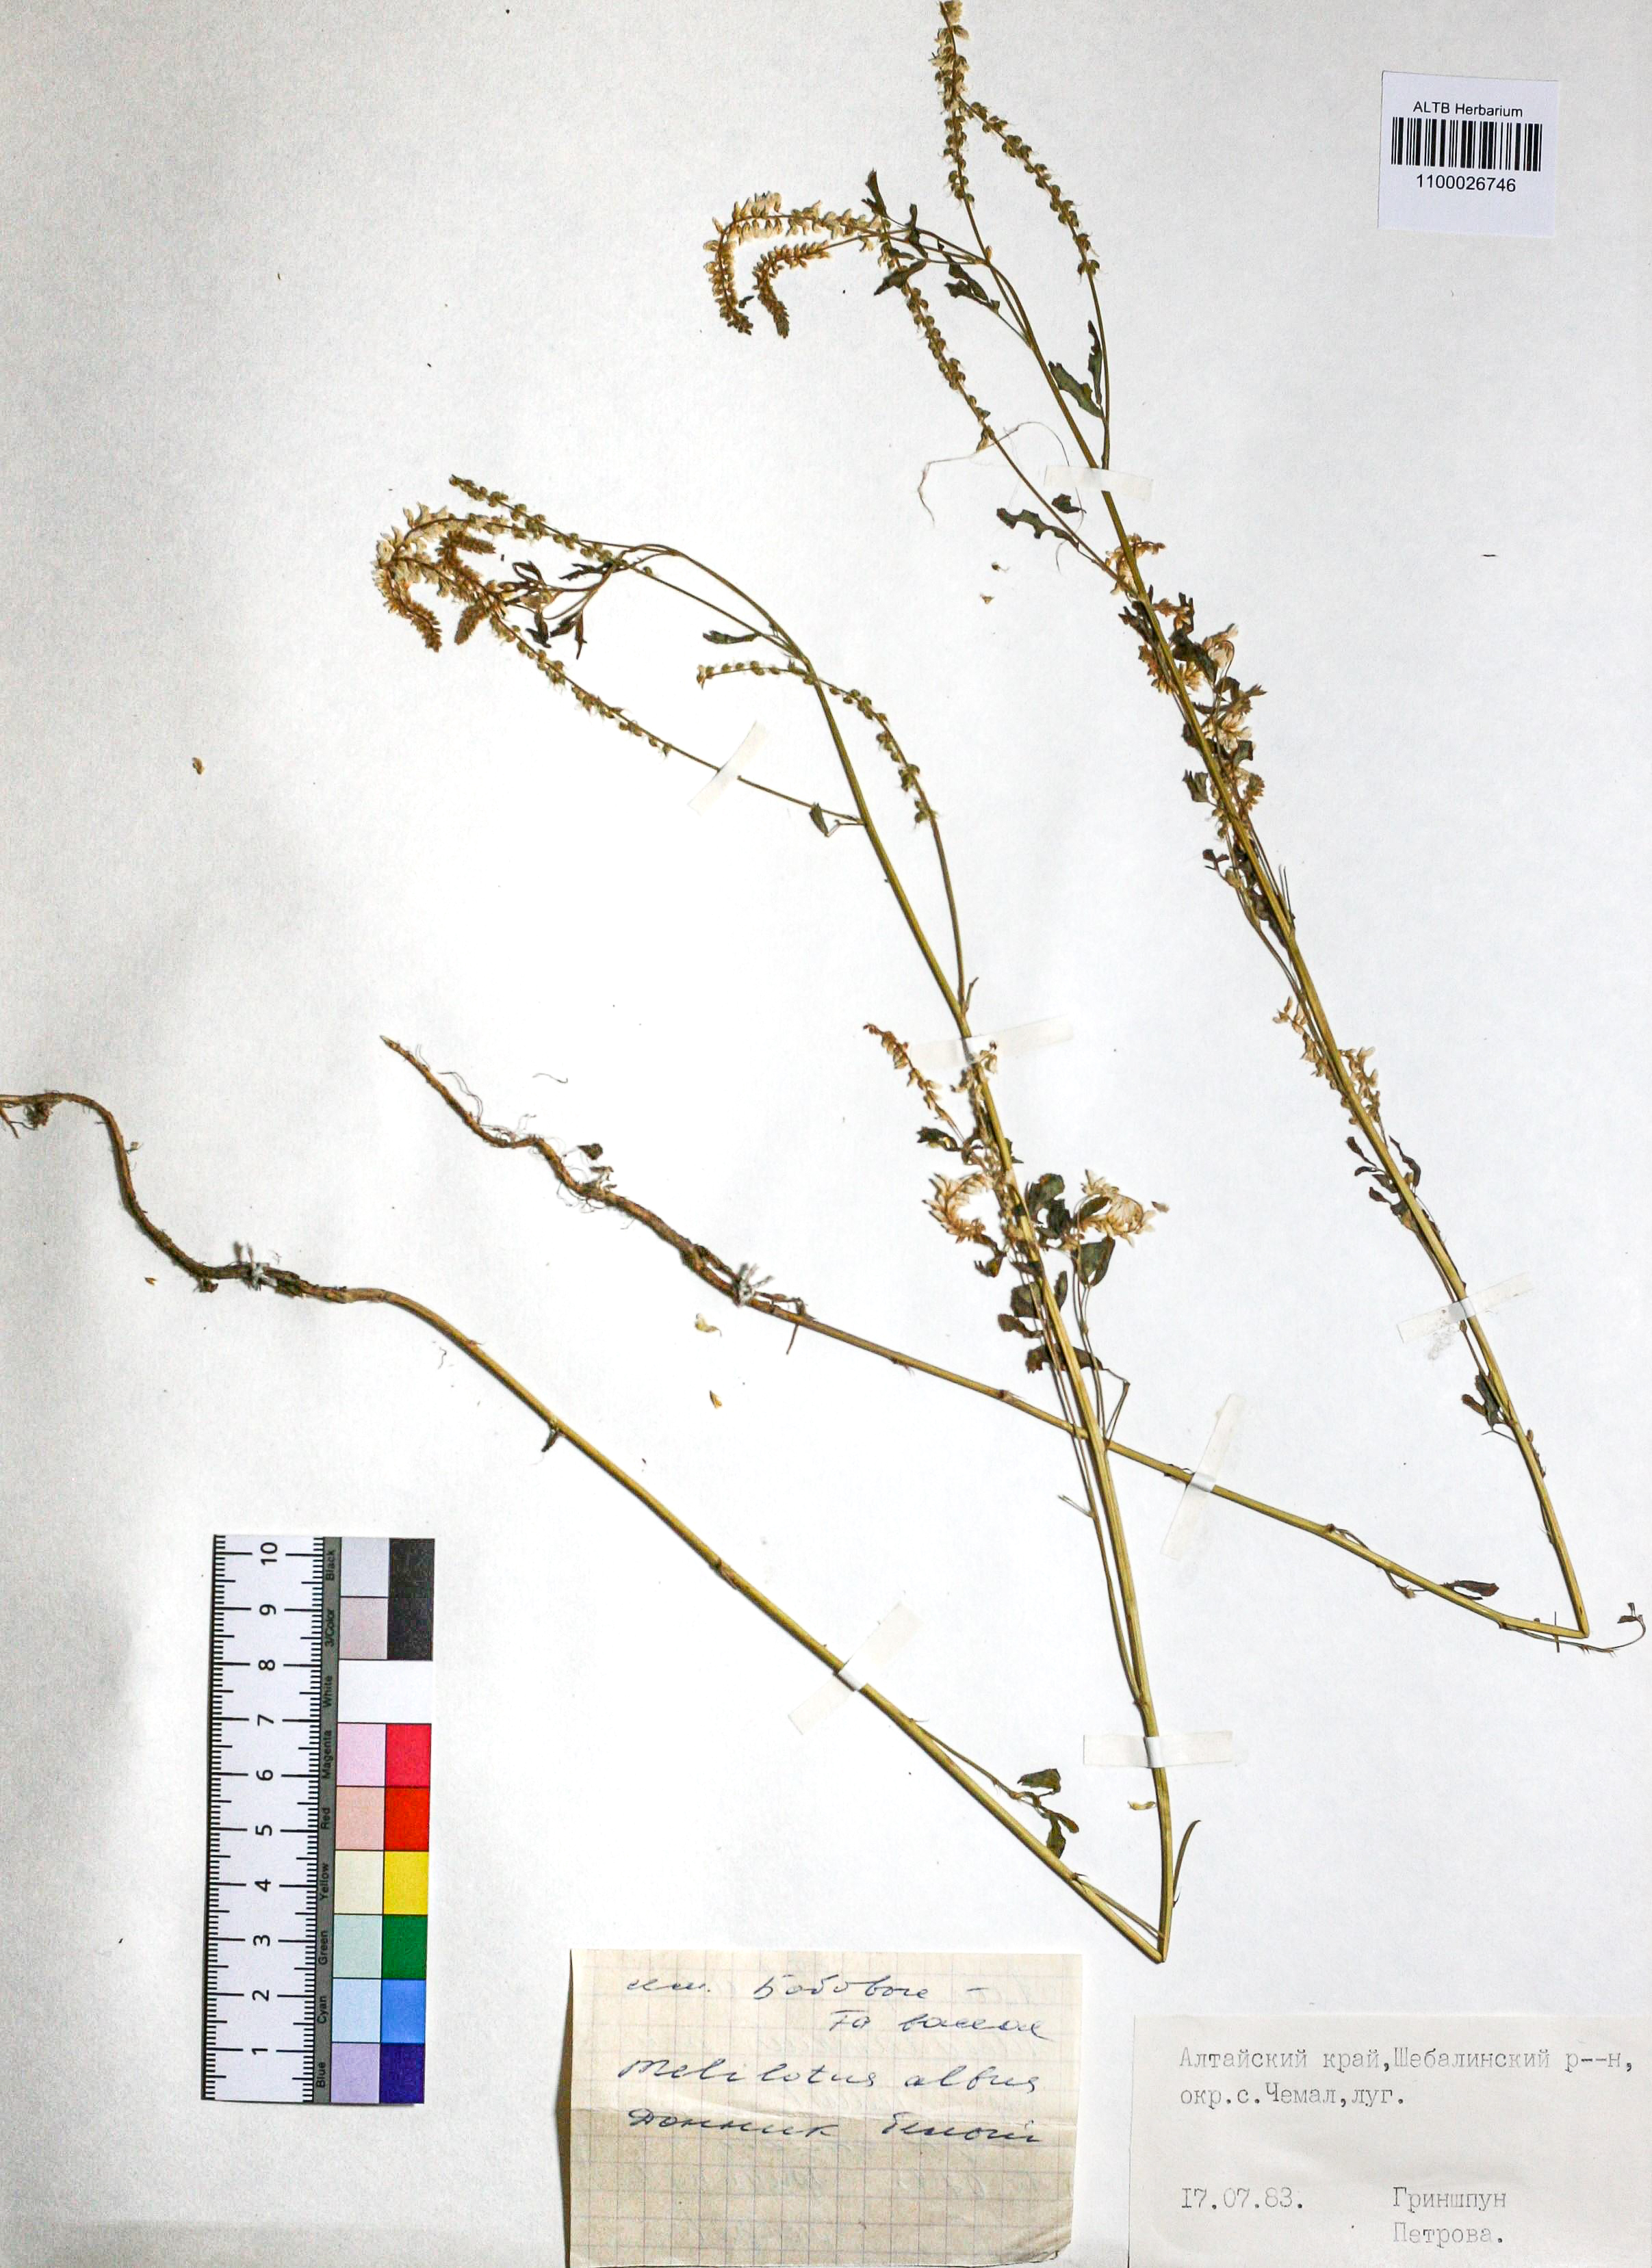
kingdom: Plantae
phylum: Tracheophyta
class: Magnoliopsida
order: Fabales
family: Fabaceae
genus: Melilotus
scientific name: Melilotus albus
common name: White melilot
